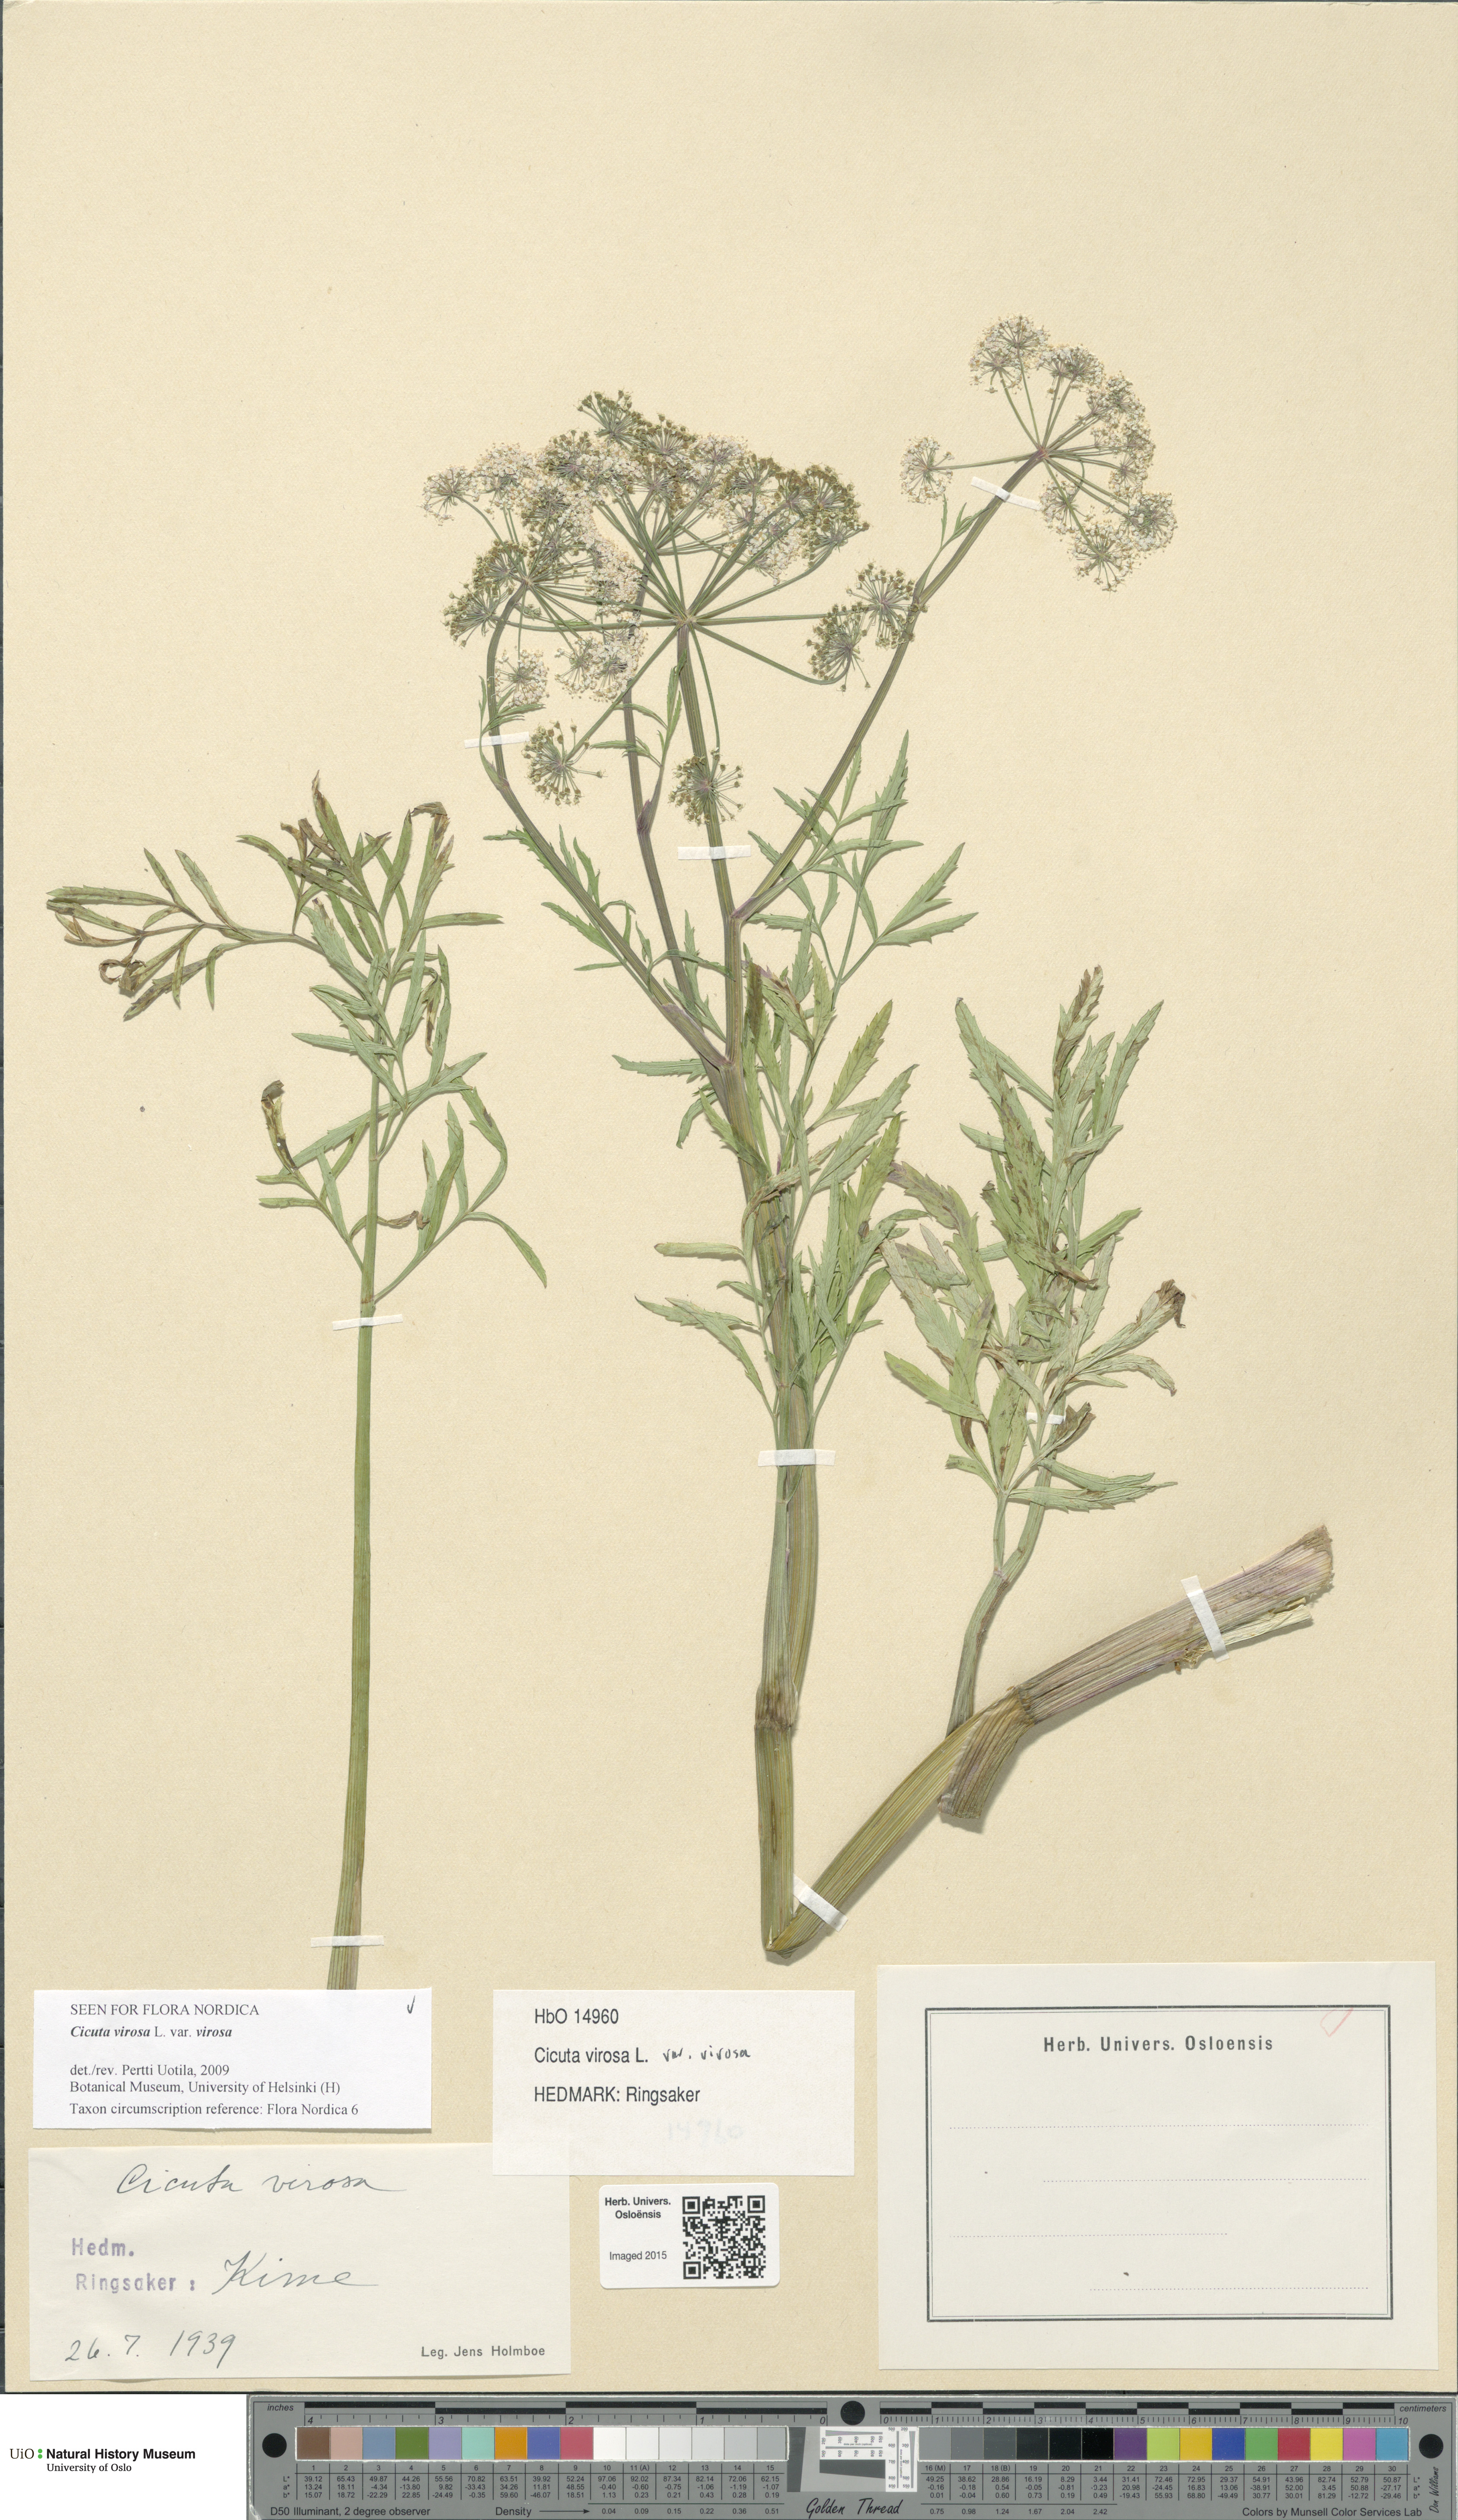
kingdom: Plantae
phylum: Tracheophyta
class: Magnoliopsida
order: Apiales
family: Apiaceae
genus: Cicuta
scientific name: Cicuta virosa
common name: Cowbane
